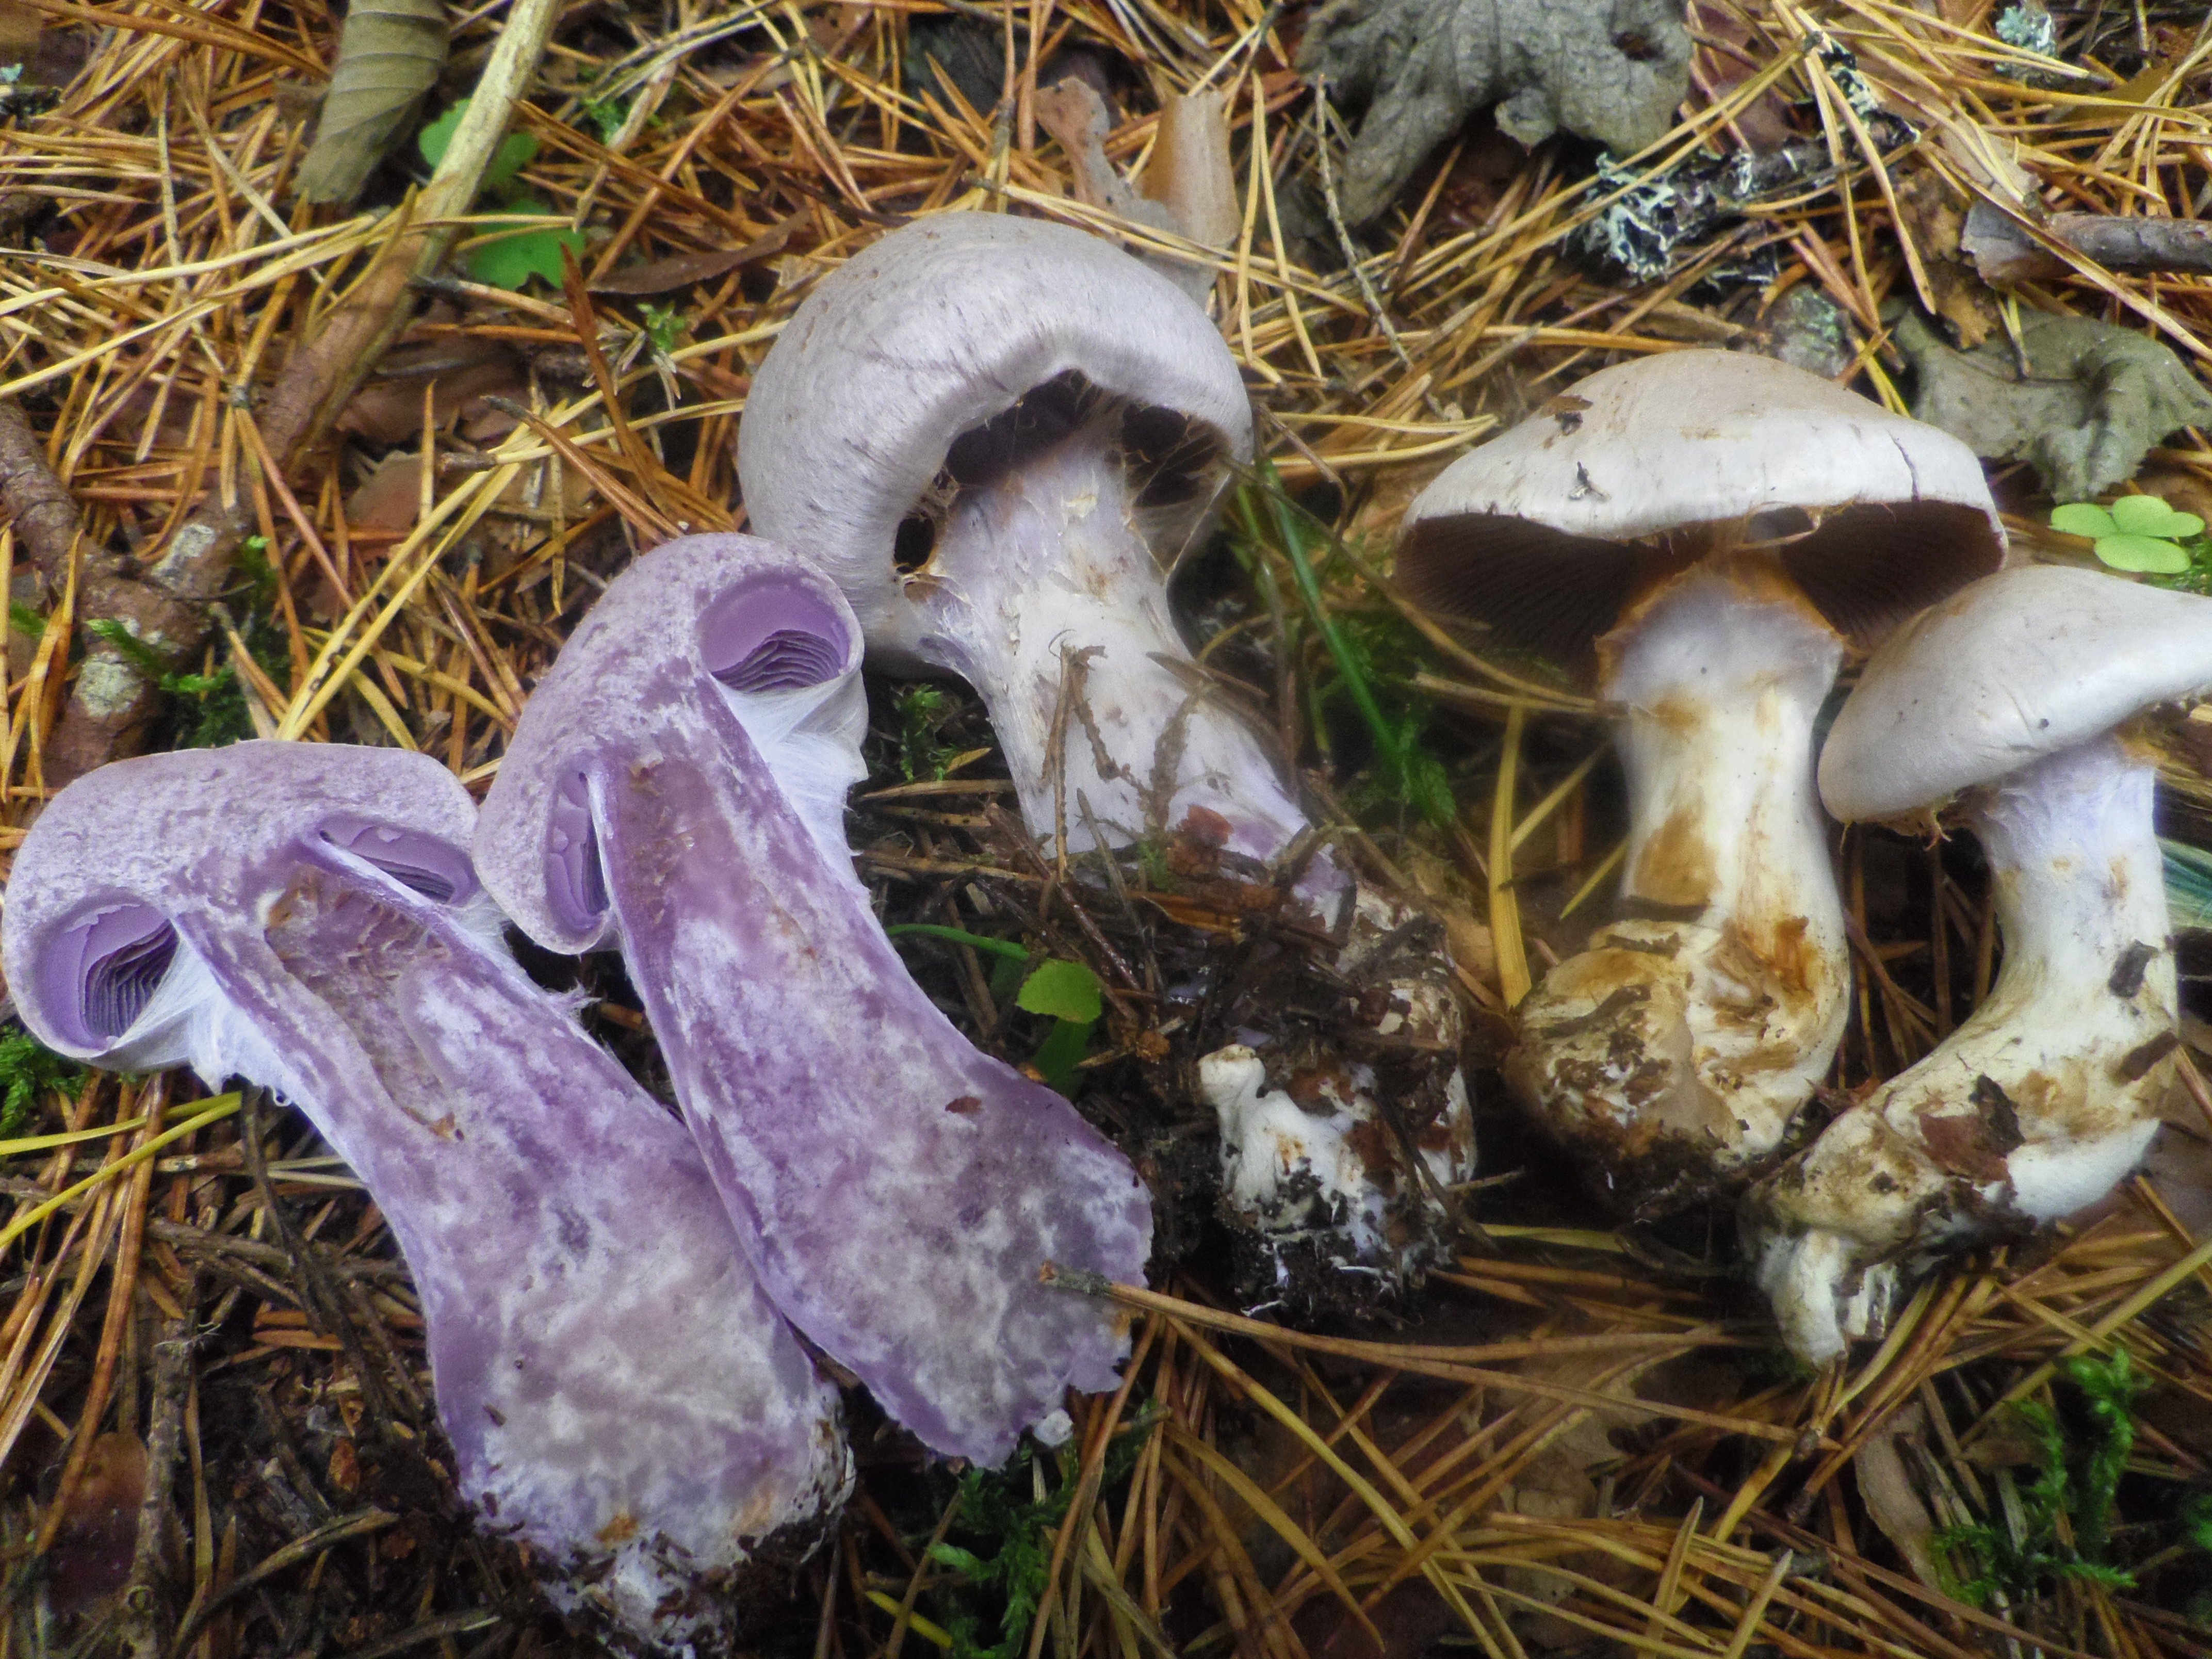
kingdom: Fungi
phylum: Basidiomycota
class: Agaricomycetes
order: Agaricales
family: Cortinariaceae
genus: Cortinarius
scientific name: Cortinarius camphoratus
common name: Goatcheese webcap
